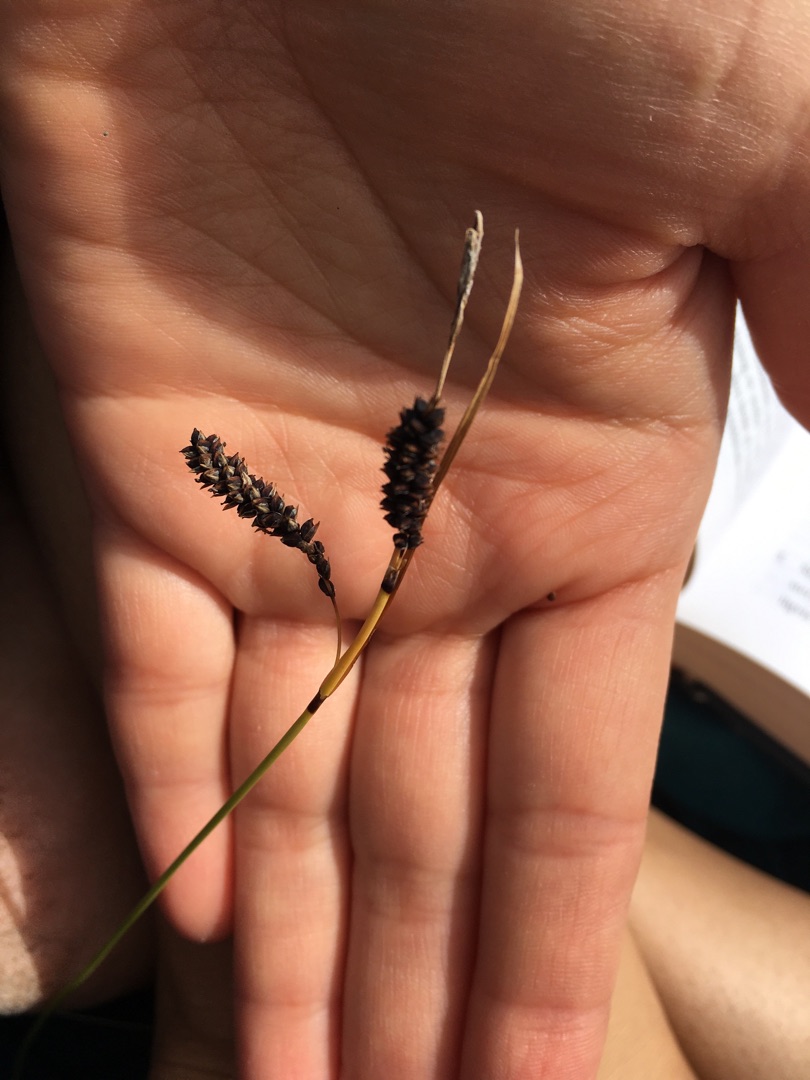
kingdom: Plantae
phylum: Tracheophyta
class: Liliopsida
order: Poales
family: Cyperaceae
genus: Carex
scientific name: Carex flacca
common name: Blågrøn star
